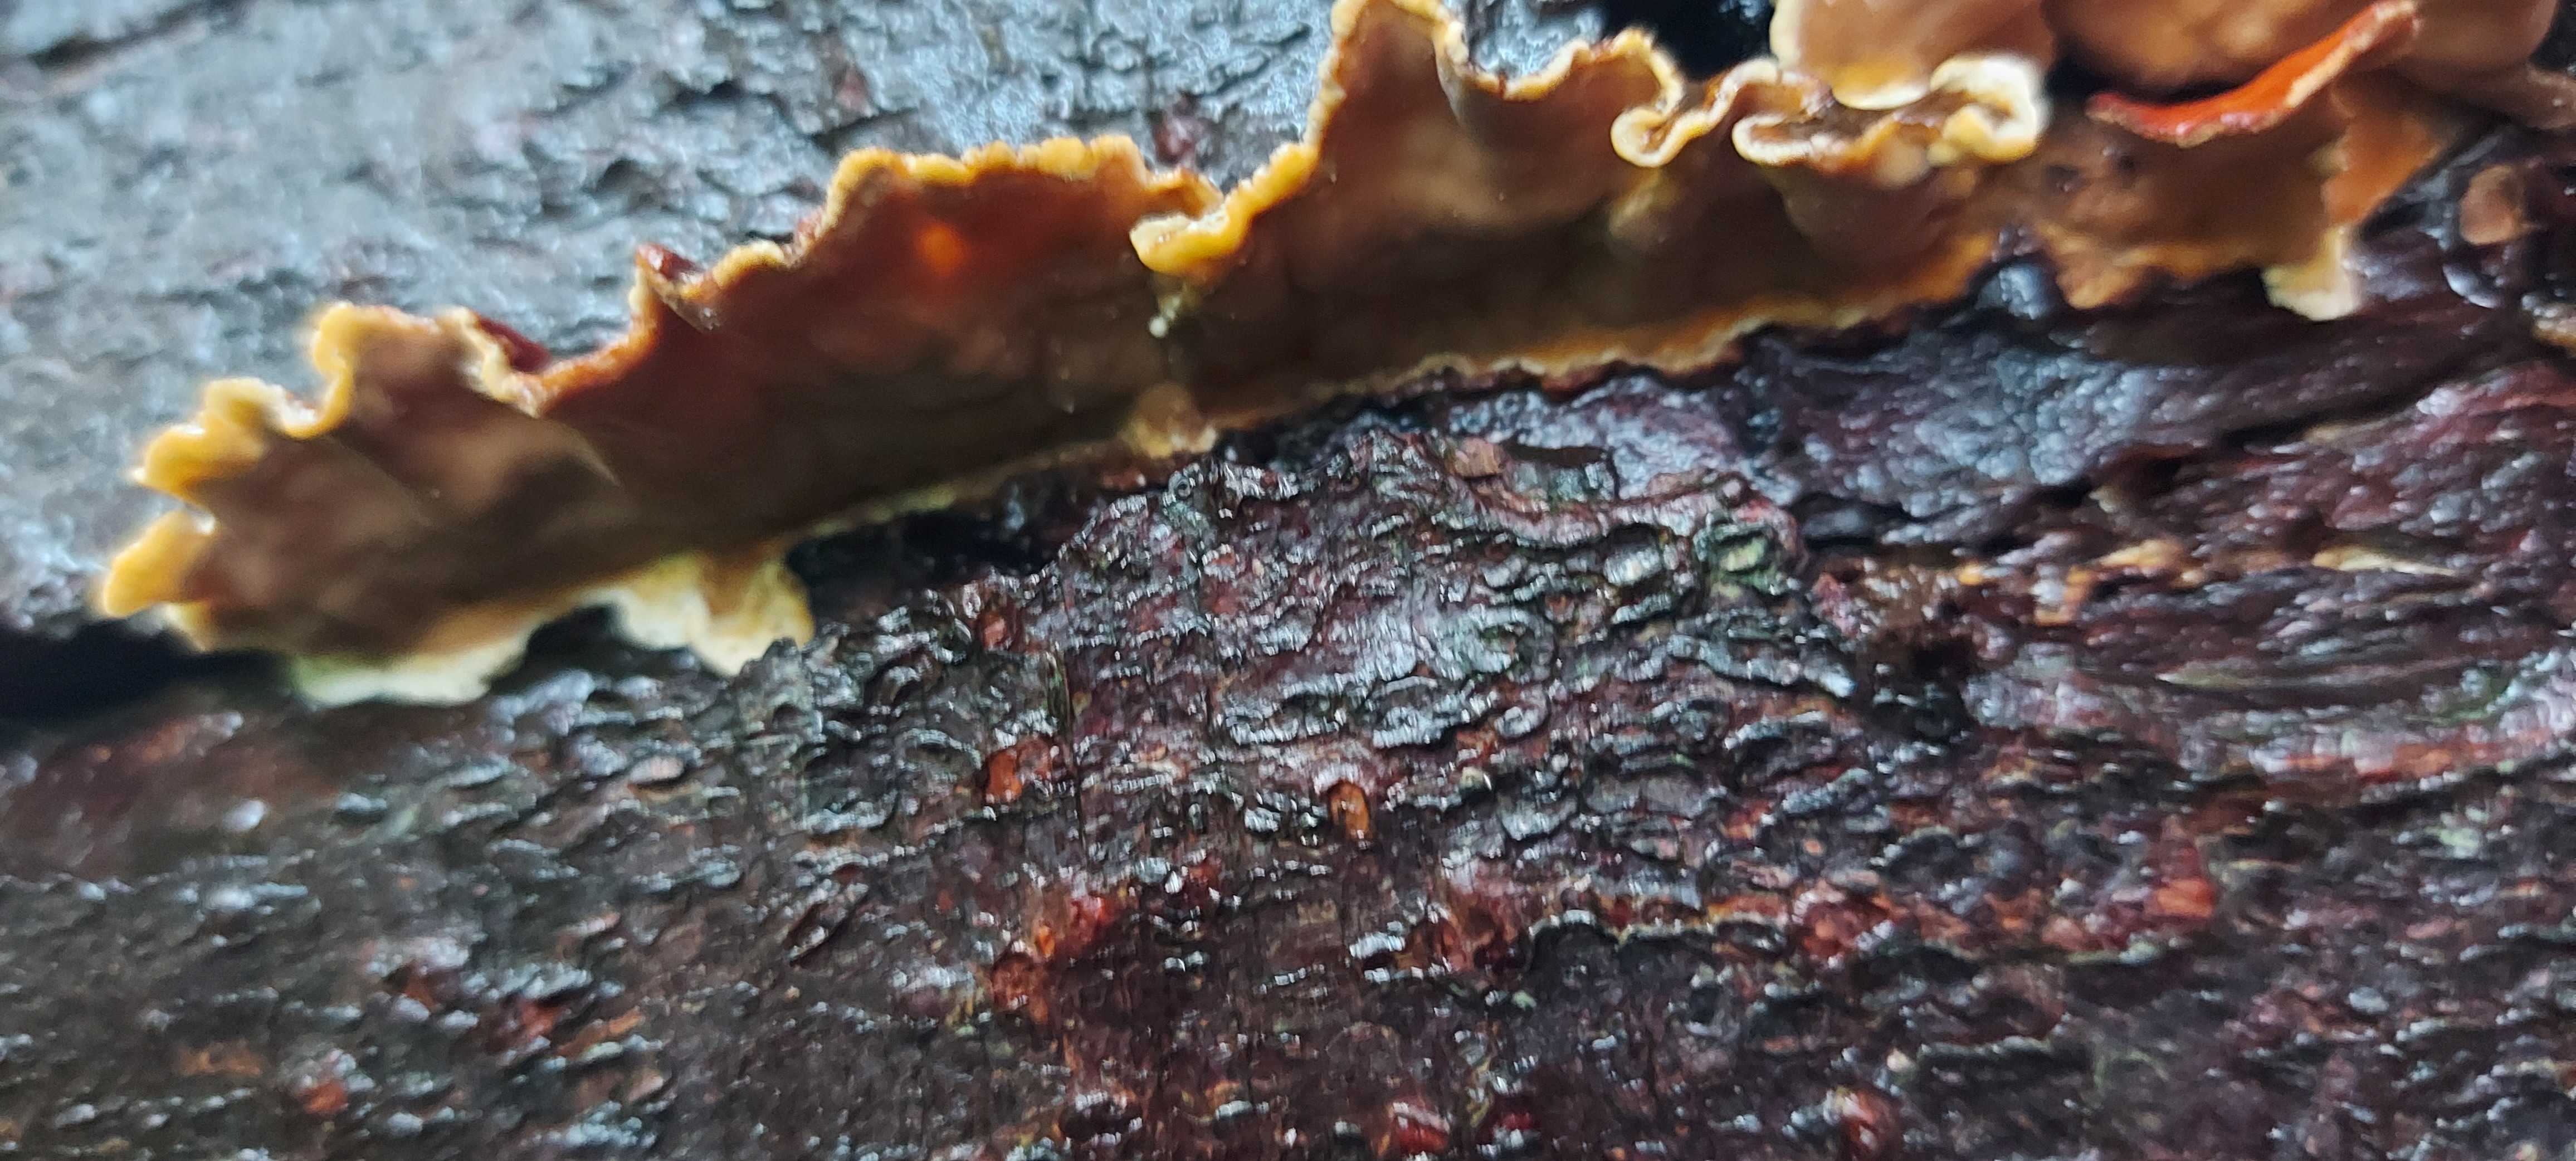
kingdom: Fungi
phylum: Basidiomycota
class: Agaricomycetes
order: Russulales
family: Stereaceae
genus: Stereum
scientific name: Stereum
